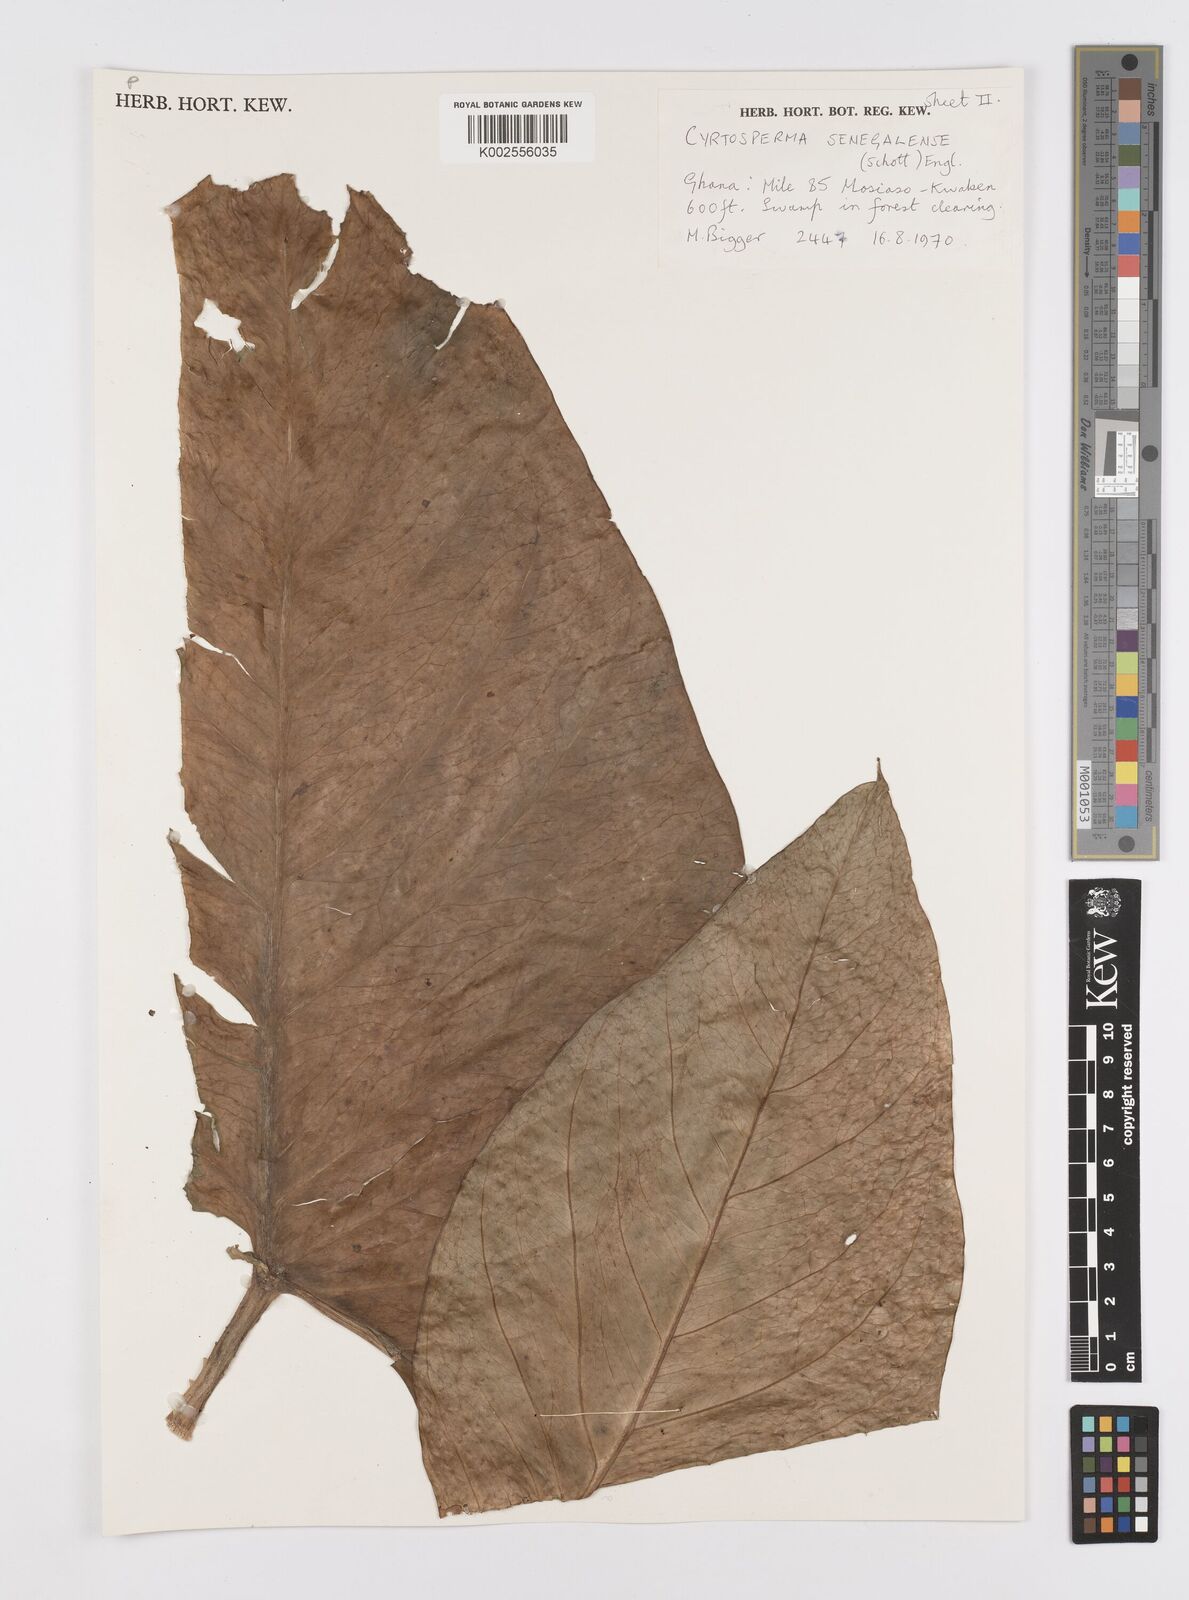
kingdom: Plantae
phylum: Tracheophyta
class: Liliopsida
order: Alismatales
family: Araceae
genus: Lasimorpha
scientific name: Lasimorpha senegalensis
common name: Swamp arum
